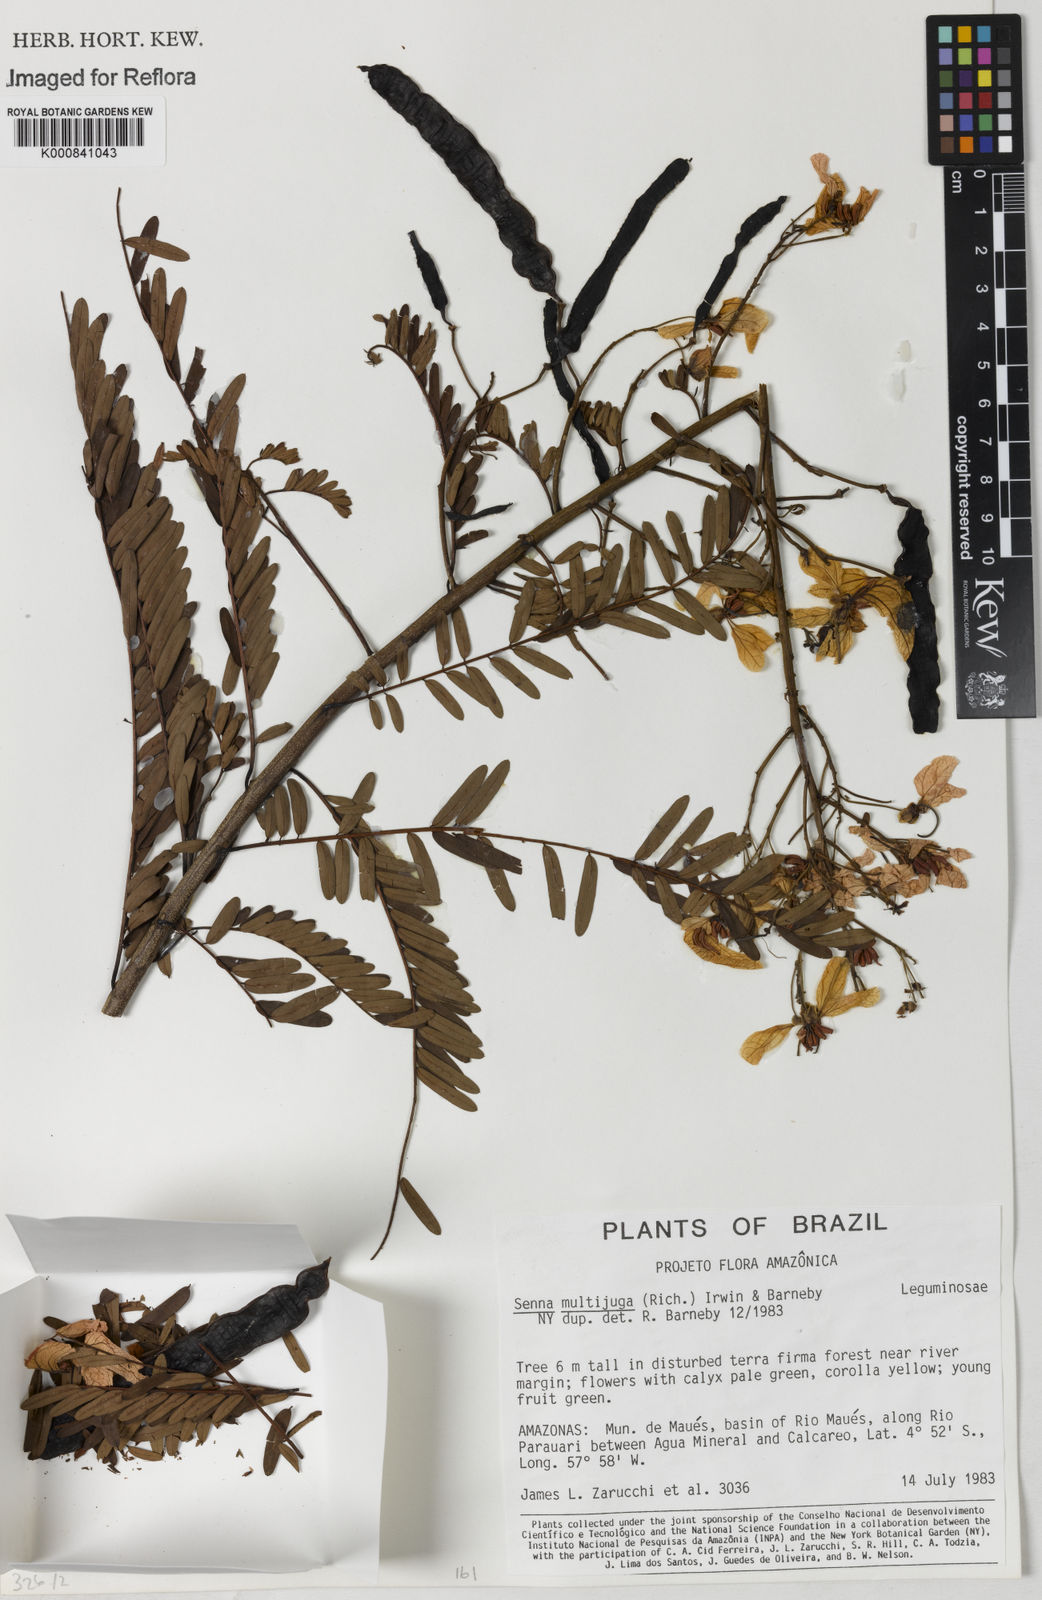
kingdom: Plantae
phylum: Tracheophyta
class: Magnoliopsida
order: Fabales
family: Fabaceae
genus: Senna
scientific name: Senna multijuga
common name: False sicklepod
